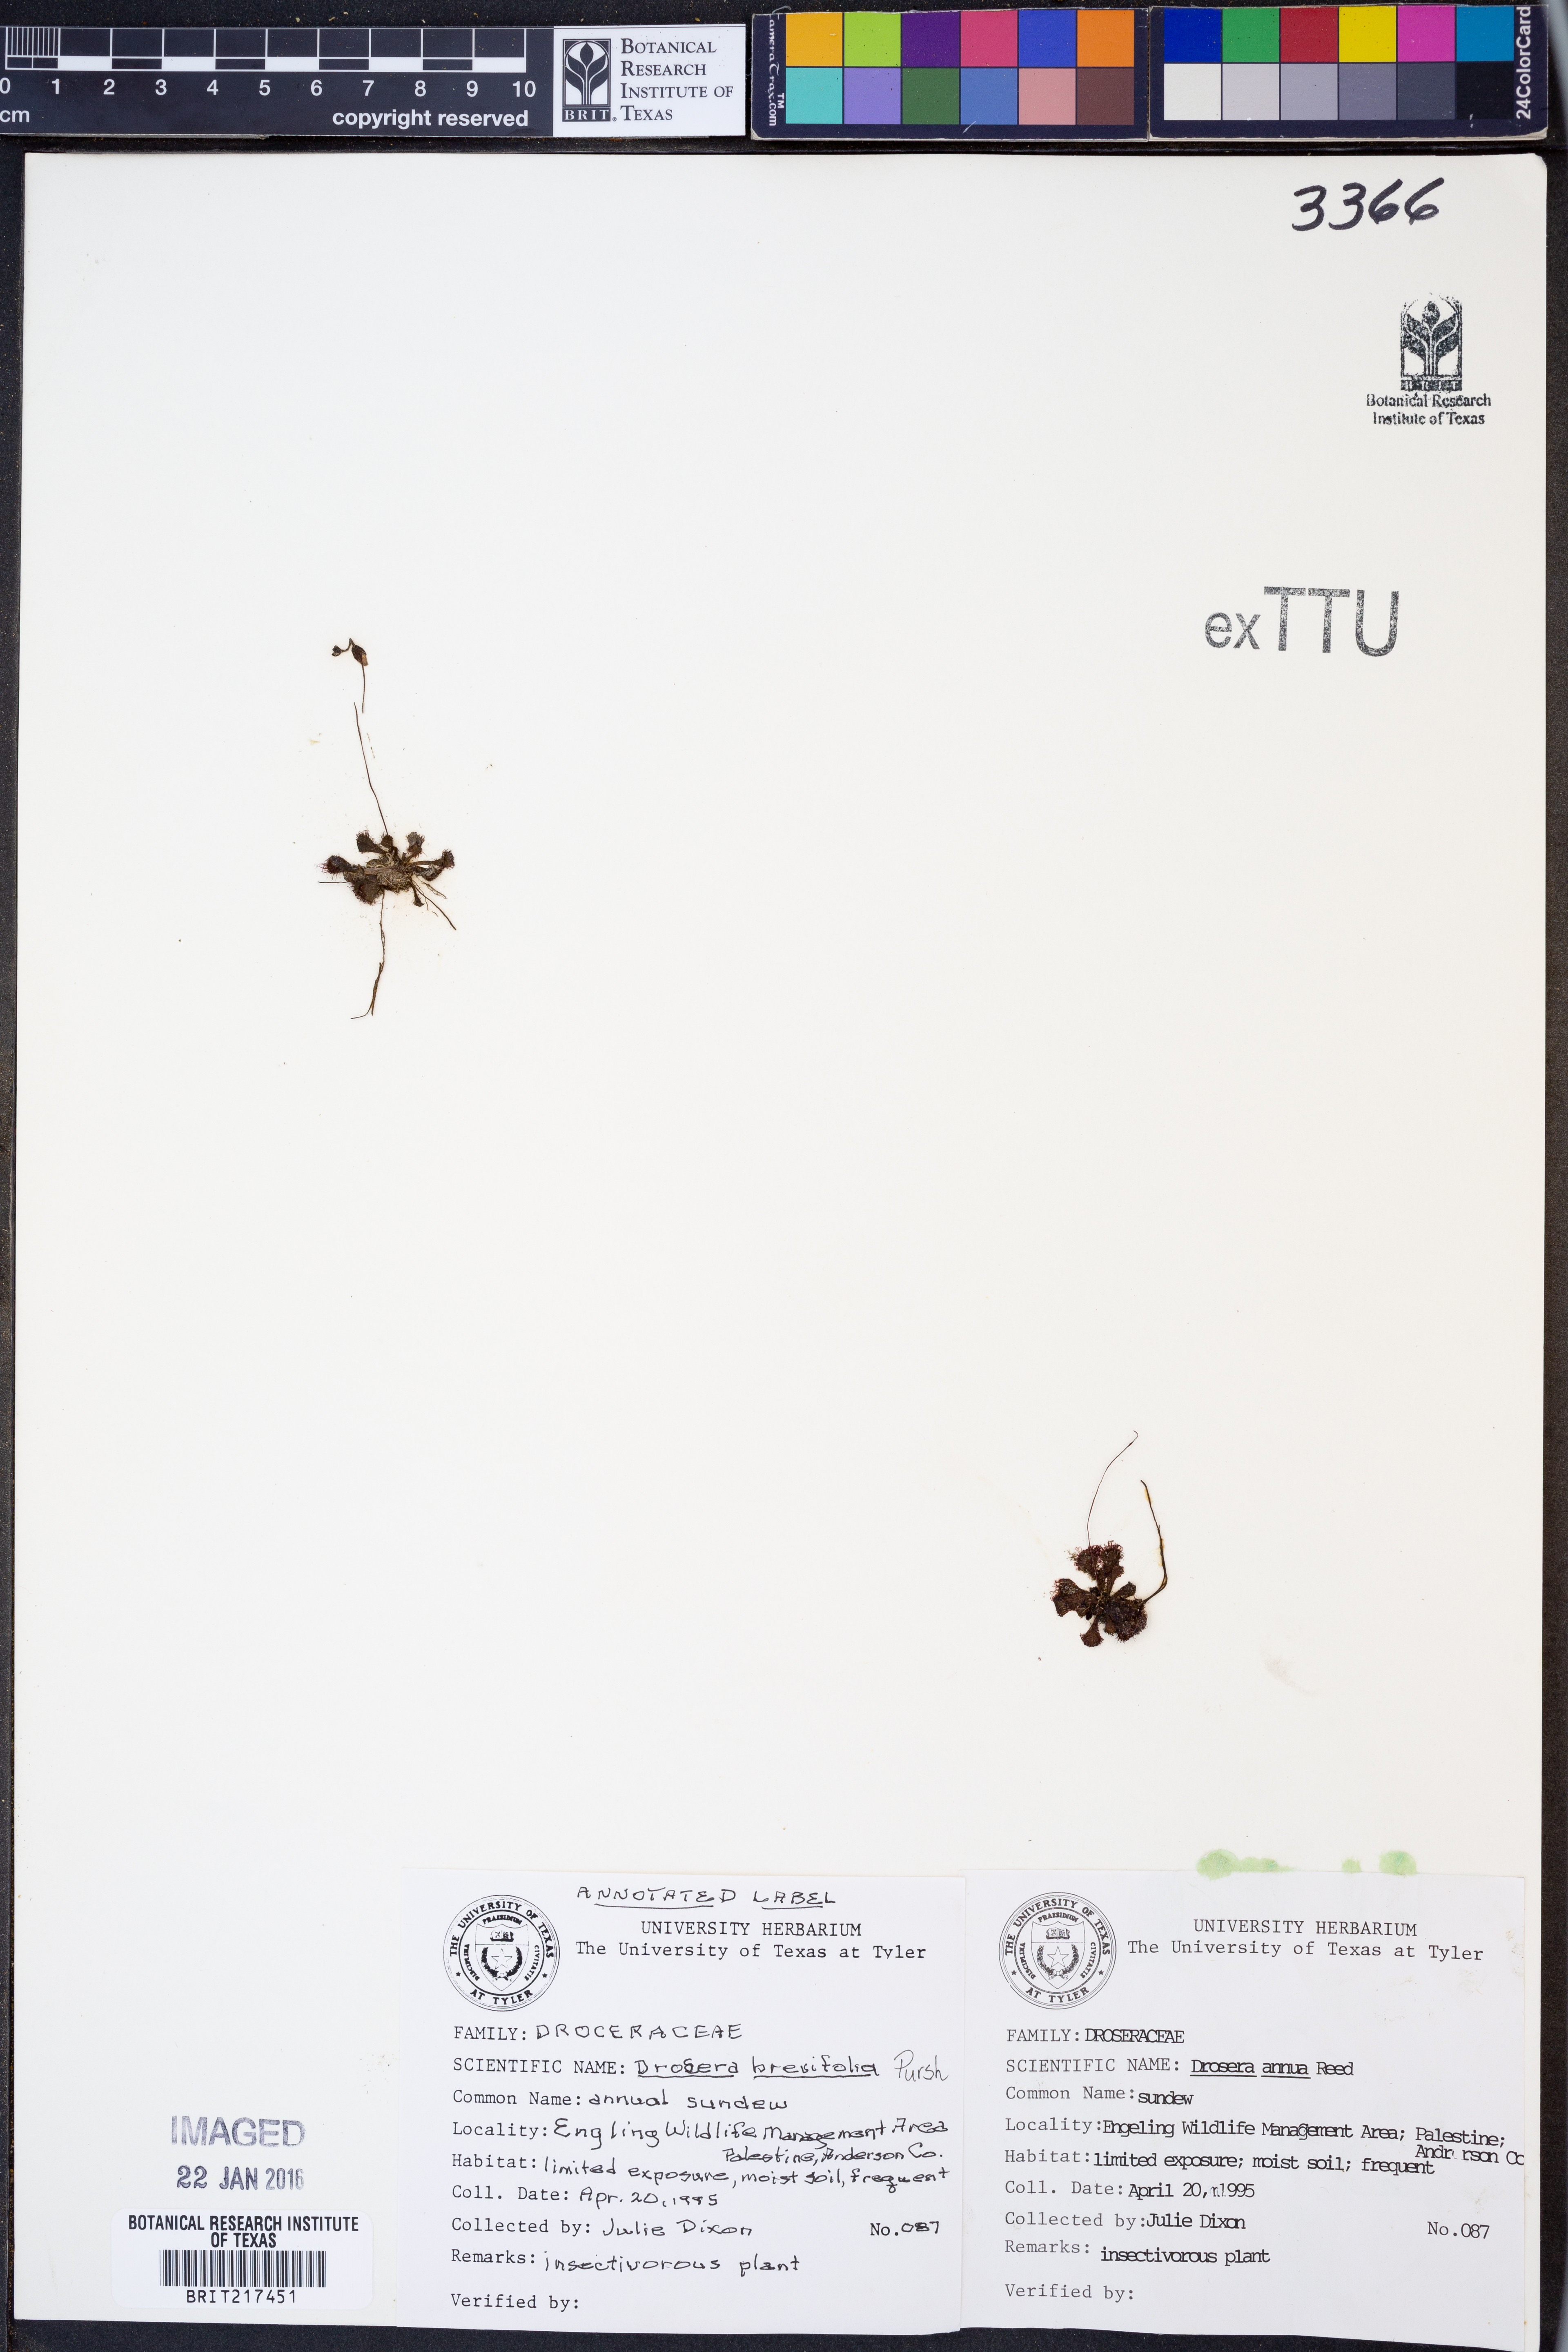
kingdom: Plantae
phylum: Tracheophyta
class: Magnoliopsida
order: Caryophyllales
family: Droseraceae
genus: Drosera
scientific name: Drosera brevifolia
